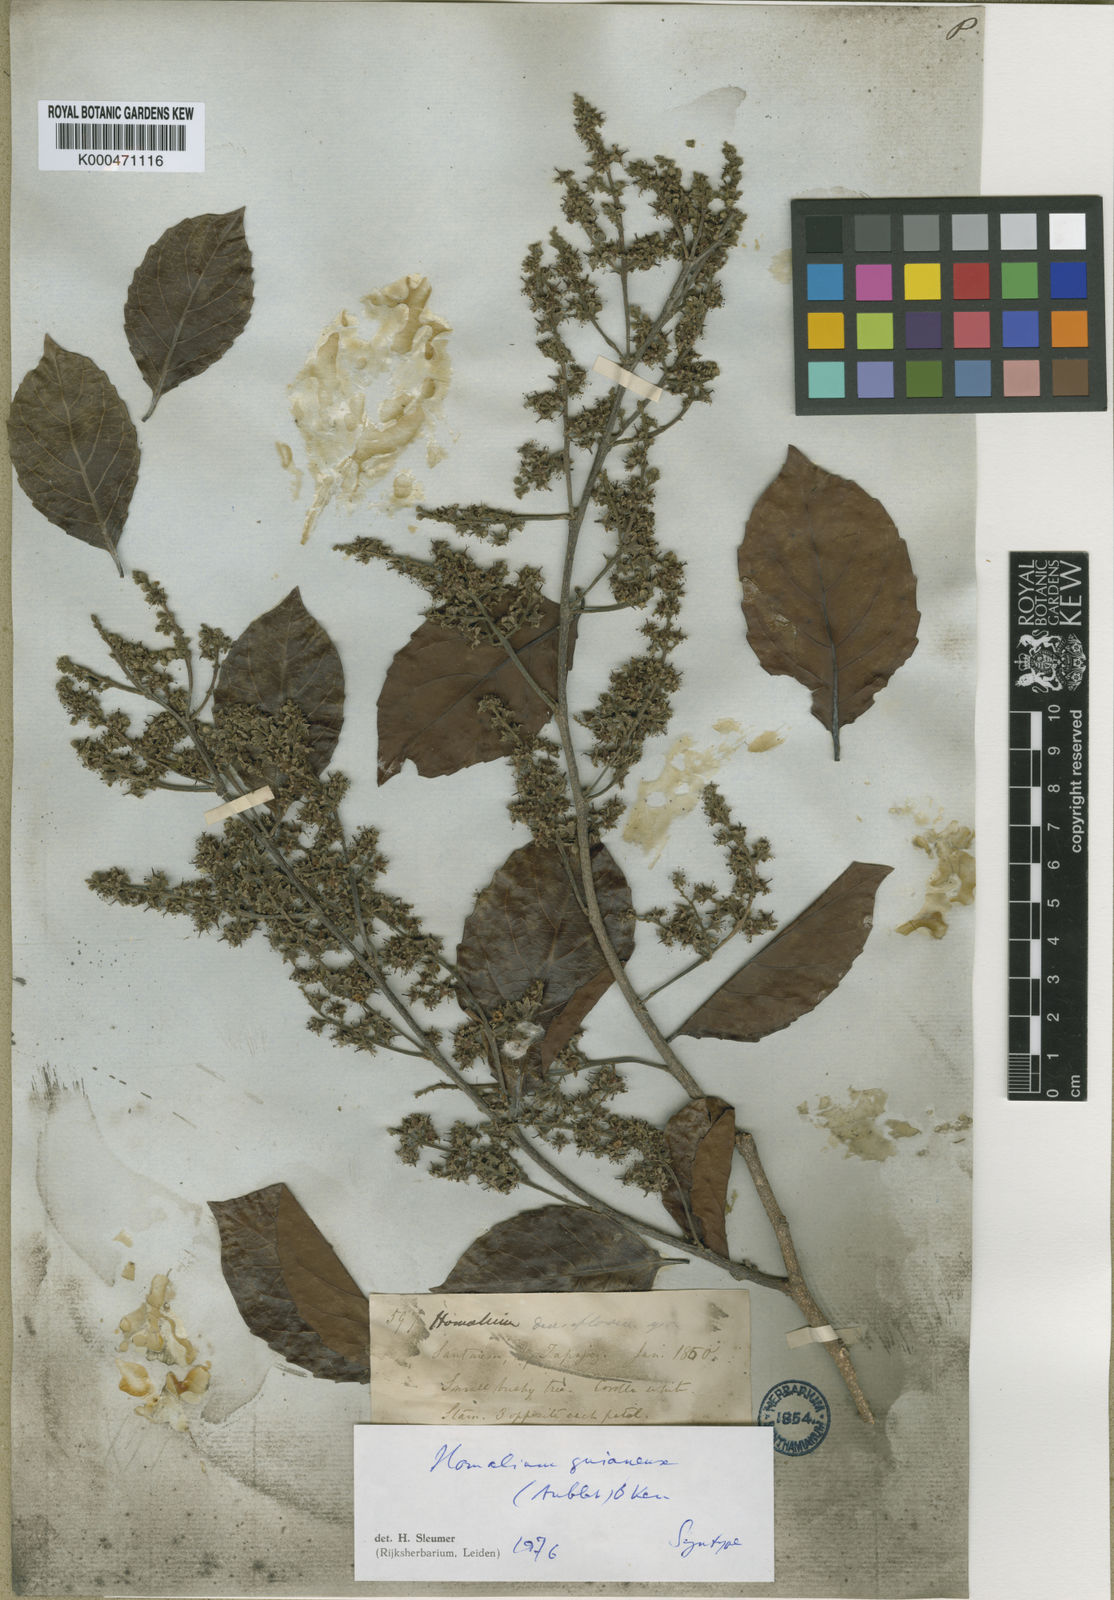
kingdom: Plantae
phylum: Tracheophyta
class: Magnoliopsida
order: Malpighiales
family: Salicaceae
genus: Homalium
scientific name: Homalium guianense
